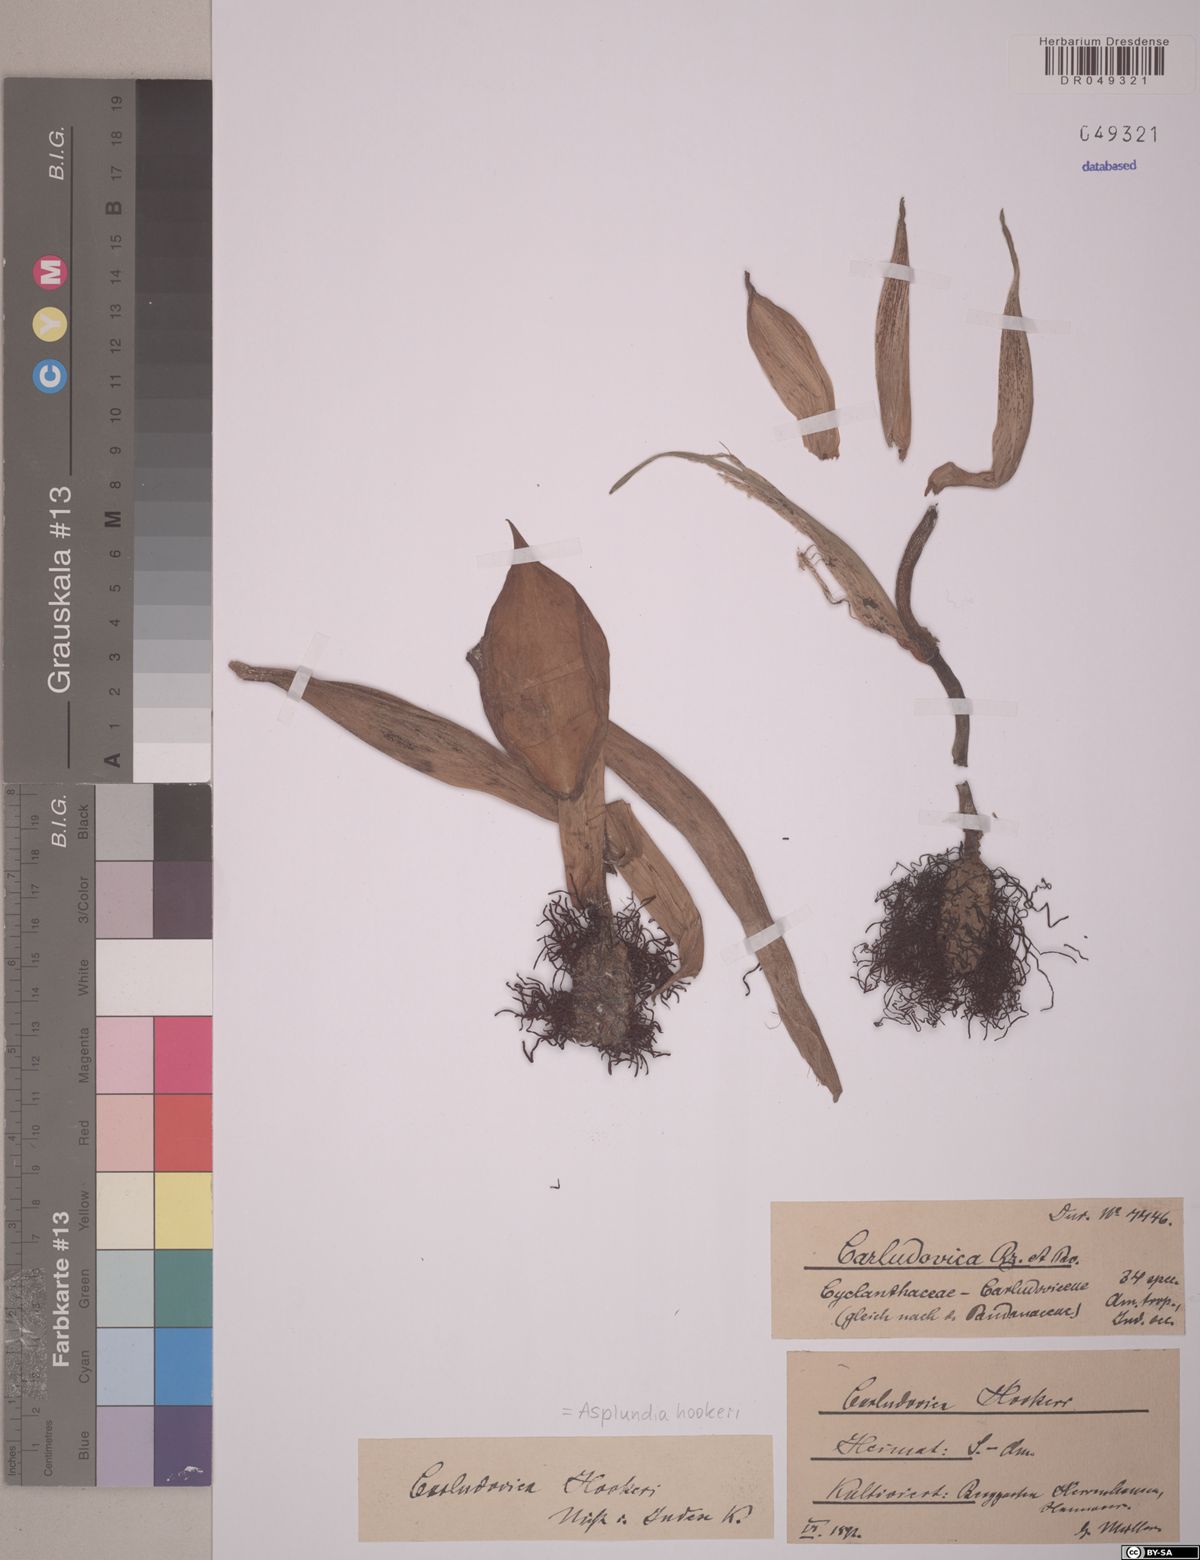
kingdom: Plantae
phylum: Tracheophyta
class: Liliopsida
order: Pandanales
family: Cyclanthaceae
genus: Asplundia
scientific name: Asplundia hookeri
